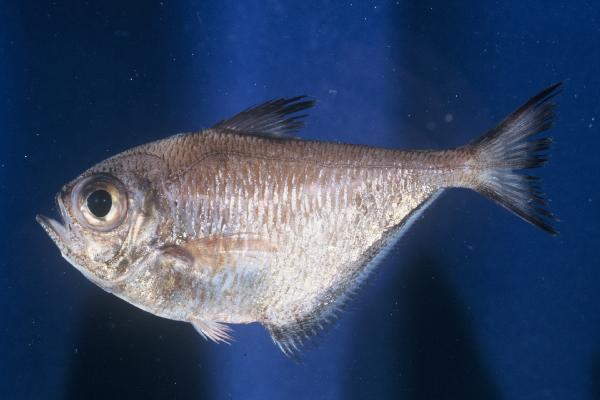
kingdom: Animalia
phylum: Chordata
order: Perciformes
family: Pempheridae
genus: Pempheris
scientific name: Pempheris connelli
